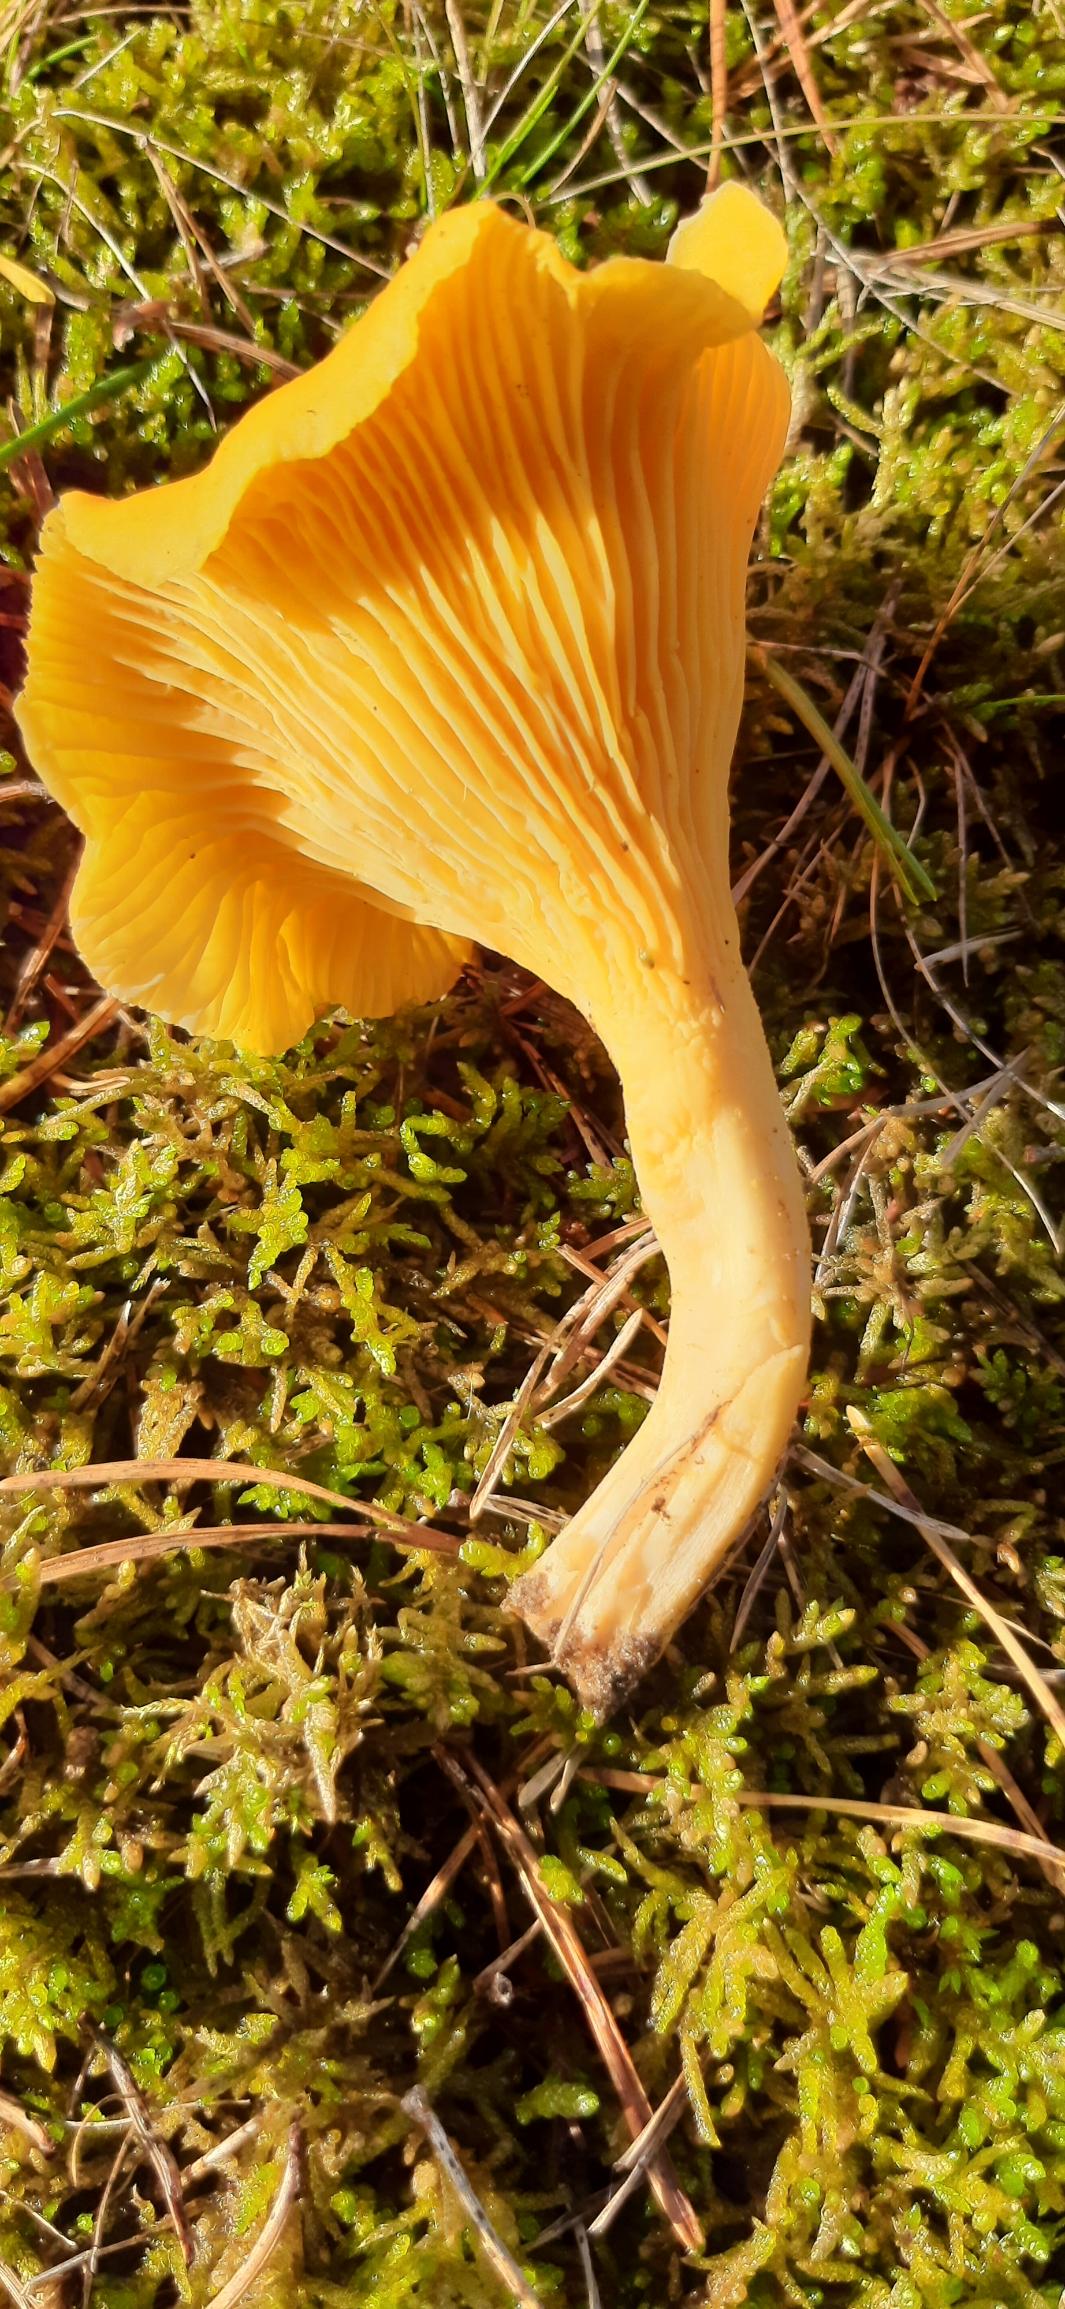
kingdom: Fungi
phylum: Basidiomycota
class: Agaricomycetes
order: Cantharellales
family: Hydnaceae
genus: Cantharellus
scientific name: Cantharellus cibarius
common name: Almindelig kantarel
